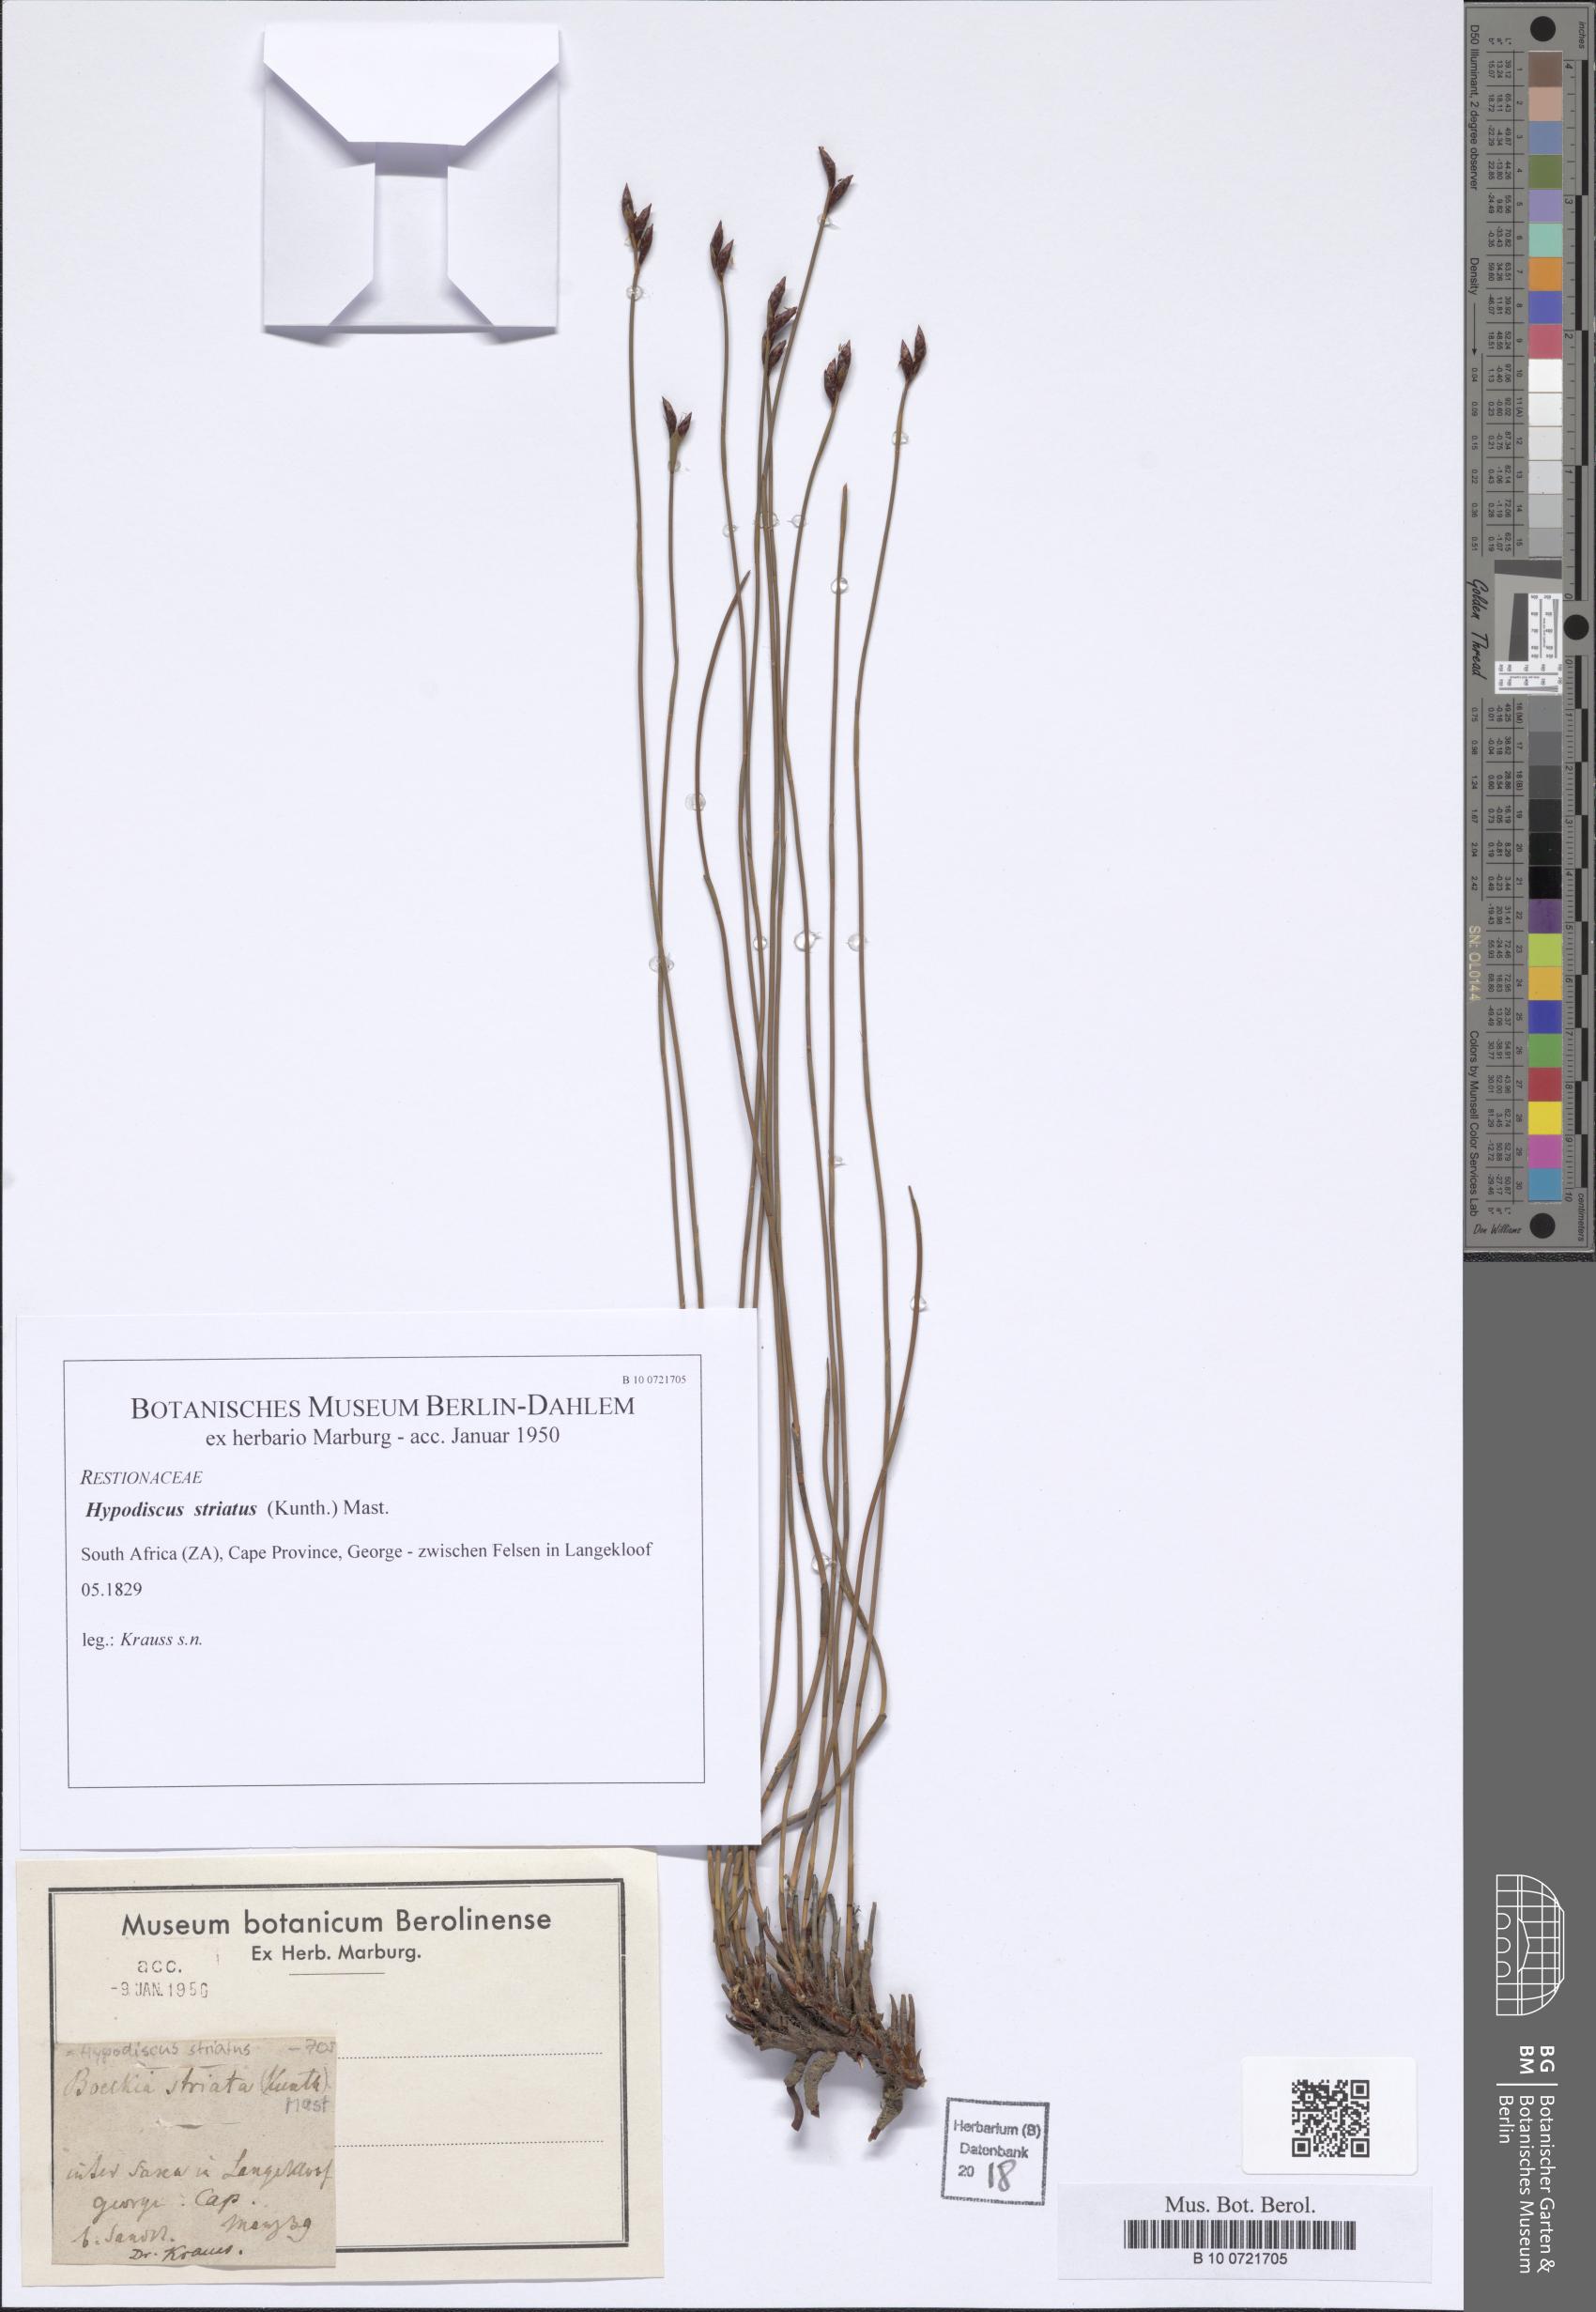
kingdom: Plantae
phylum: Tracheophyta
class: Liliopsida
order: Poales
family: Restionaceae
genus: Hypodiscus
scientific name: Hypodiscus striatus
